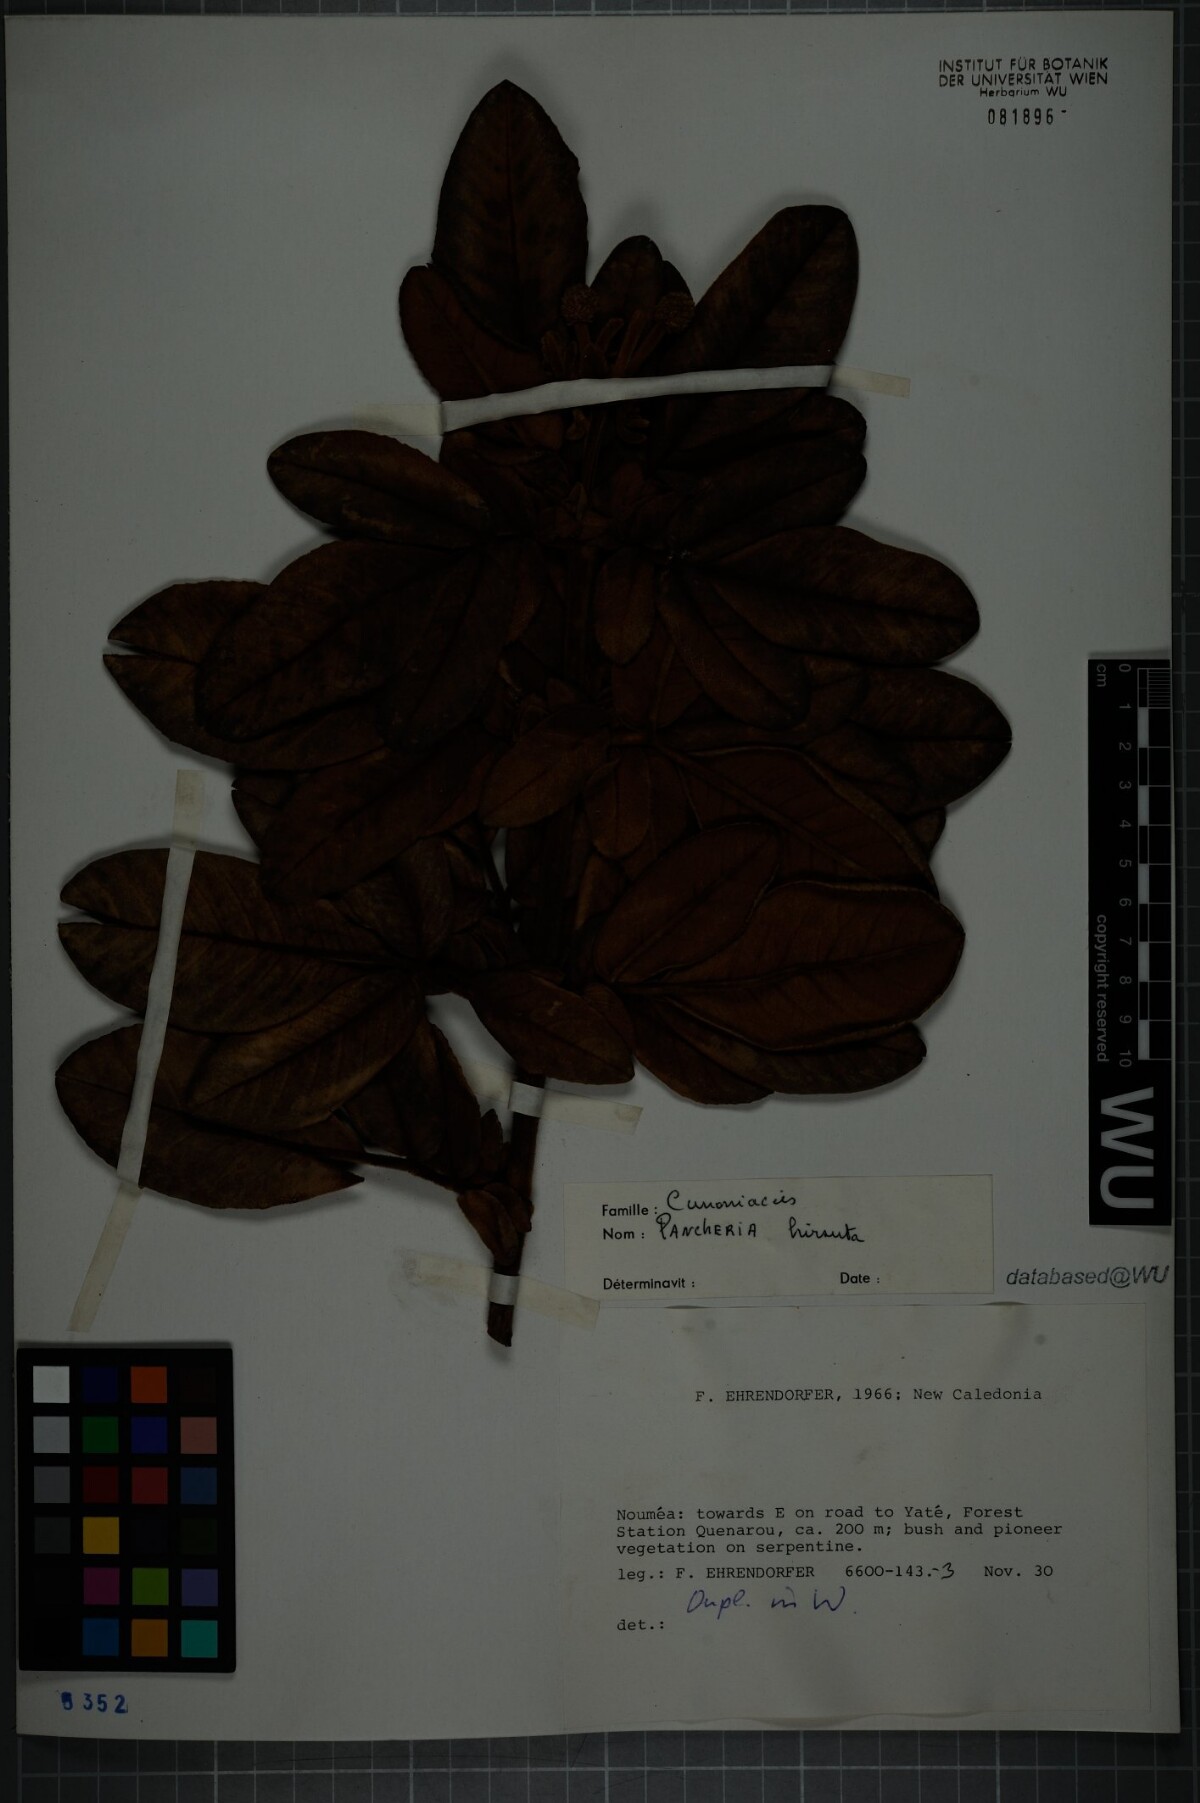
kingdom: Plantae
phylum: Tracheophyta
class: Magnoliopsida
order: Oxalidales
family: Cunoniaceae
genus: Pancheria
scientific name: Pancheria hirsuta
